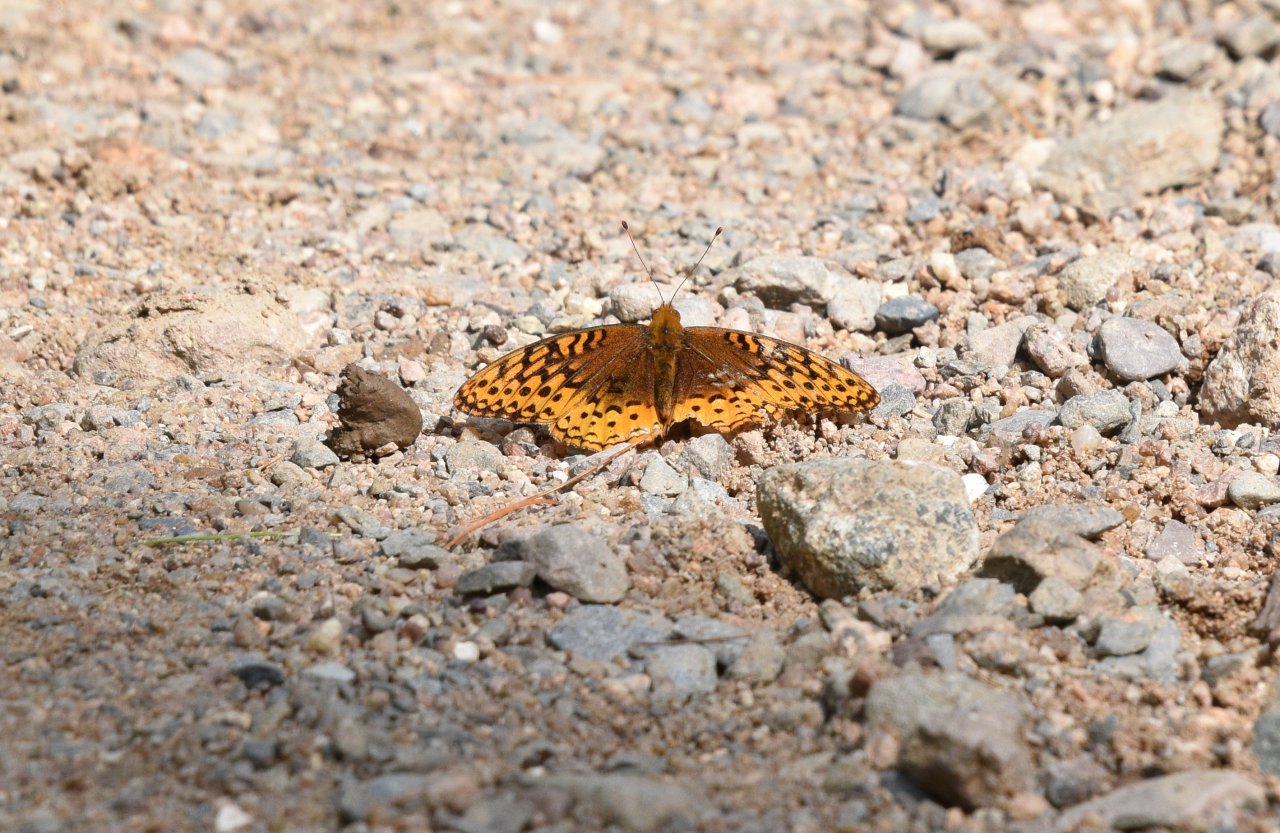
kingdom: Animalia
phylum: Arthropoda
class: Insecta
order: Lepidoptera
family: Nymphalidae
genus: Speyeria
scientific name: Speyeria cybele
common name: Great Spangled Fritillary
